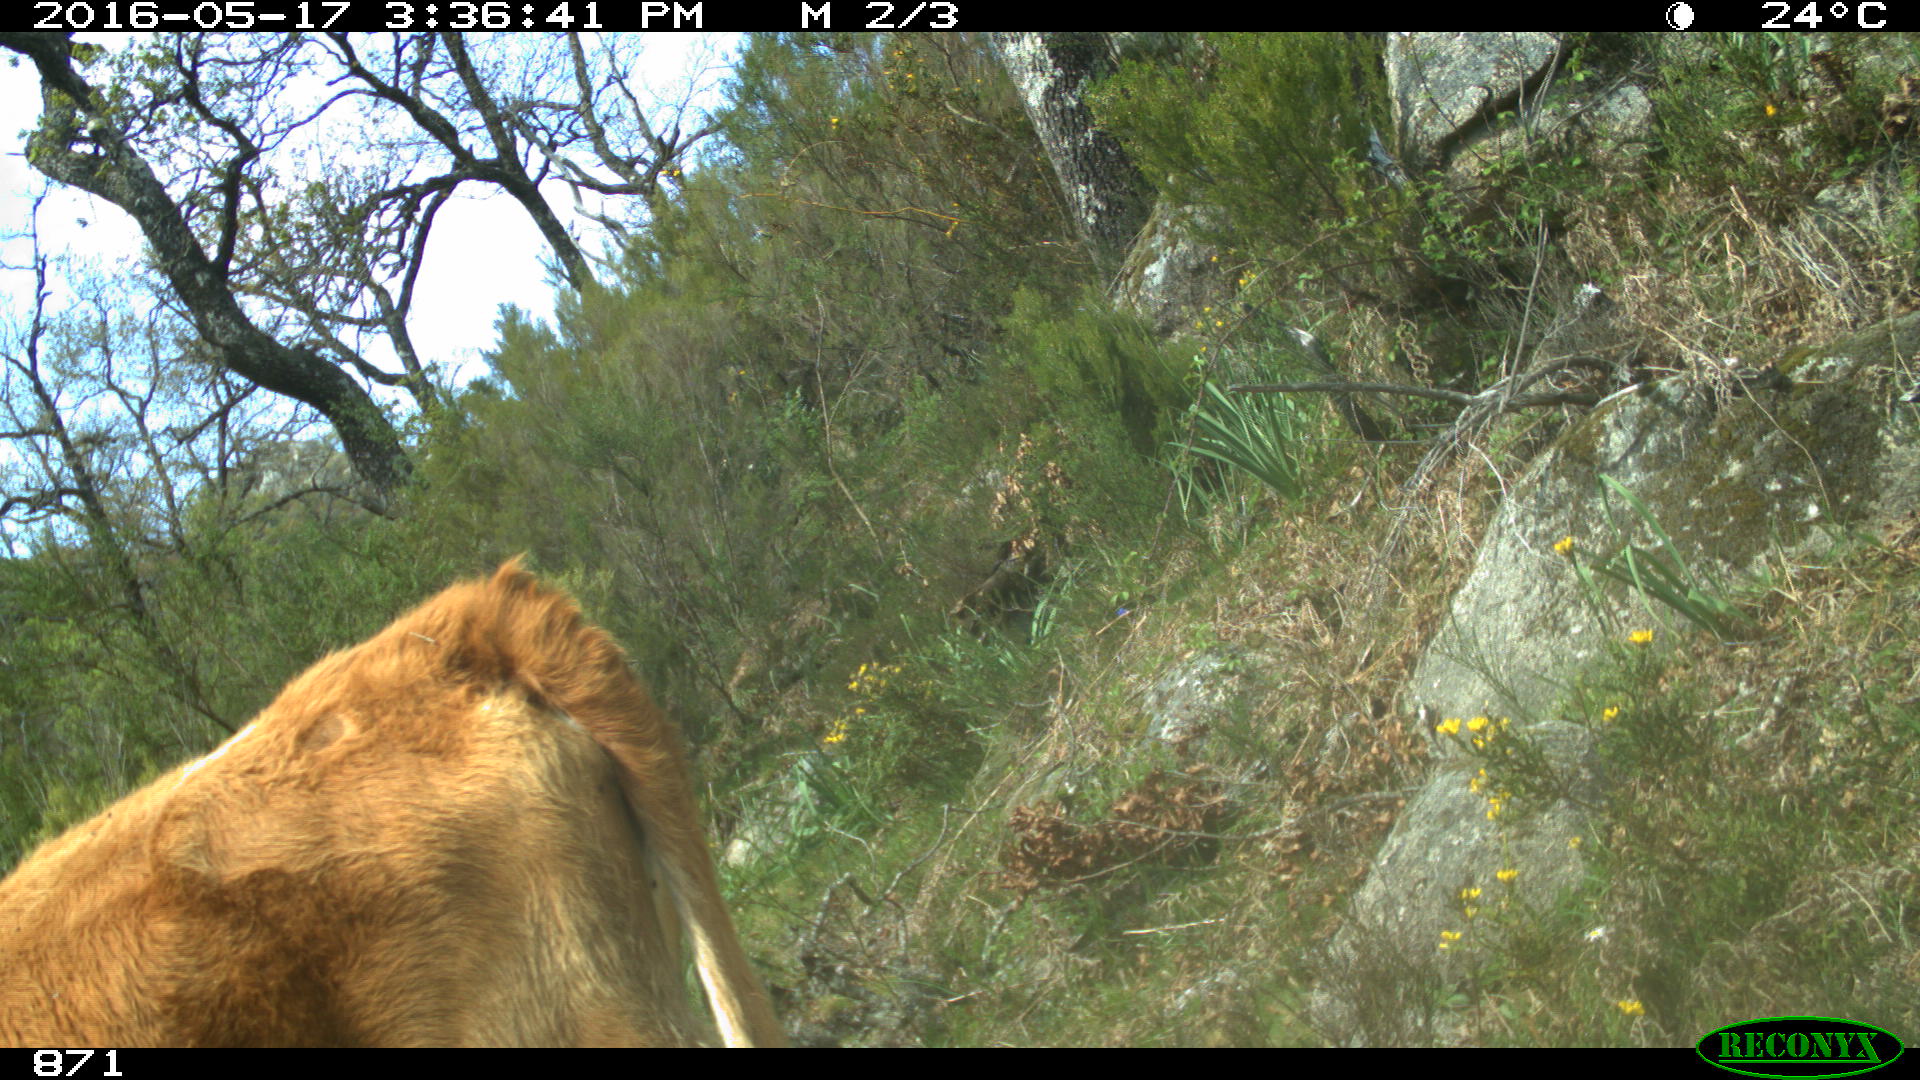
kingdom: Animalia
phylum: Chordata
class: Mammalia
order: Artiodactyla
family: Bovidae
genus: Bos
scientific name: Bos taurus
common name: Domesticated cattle
